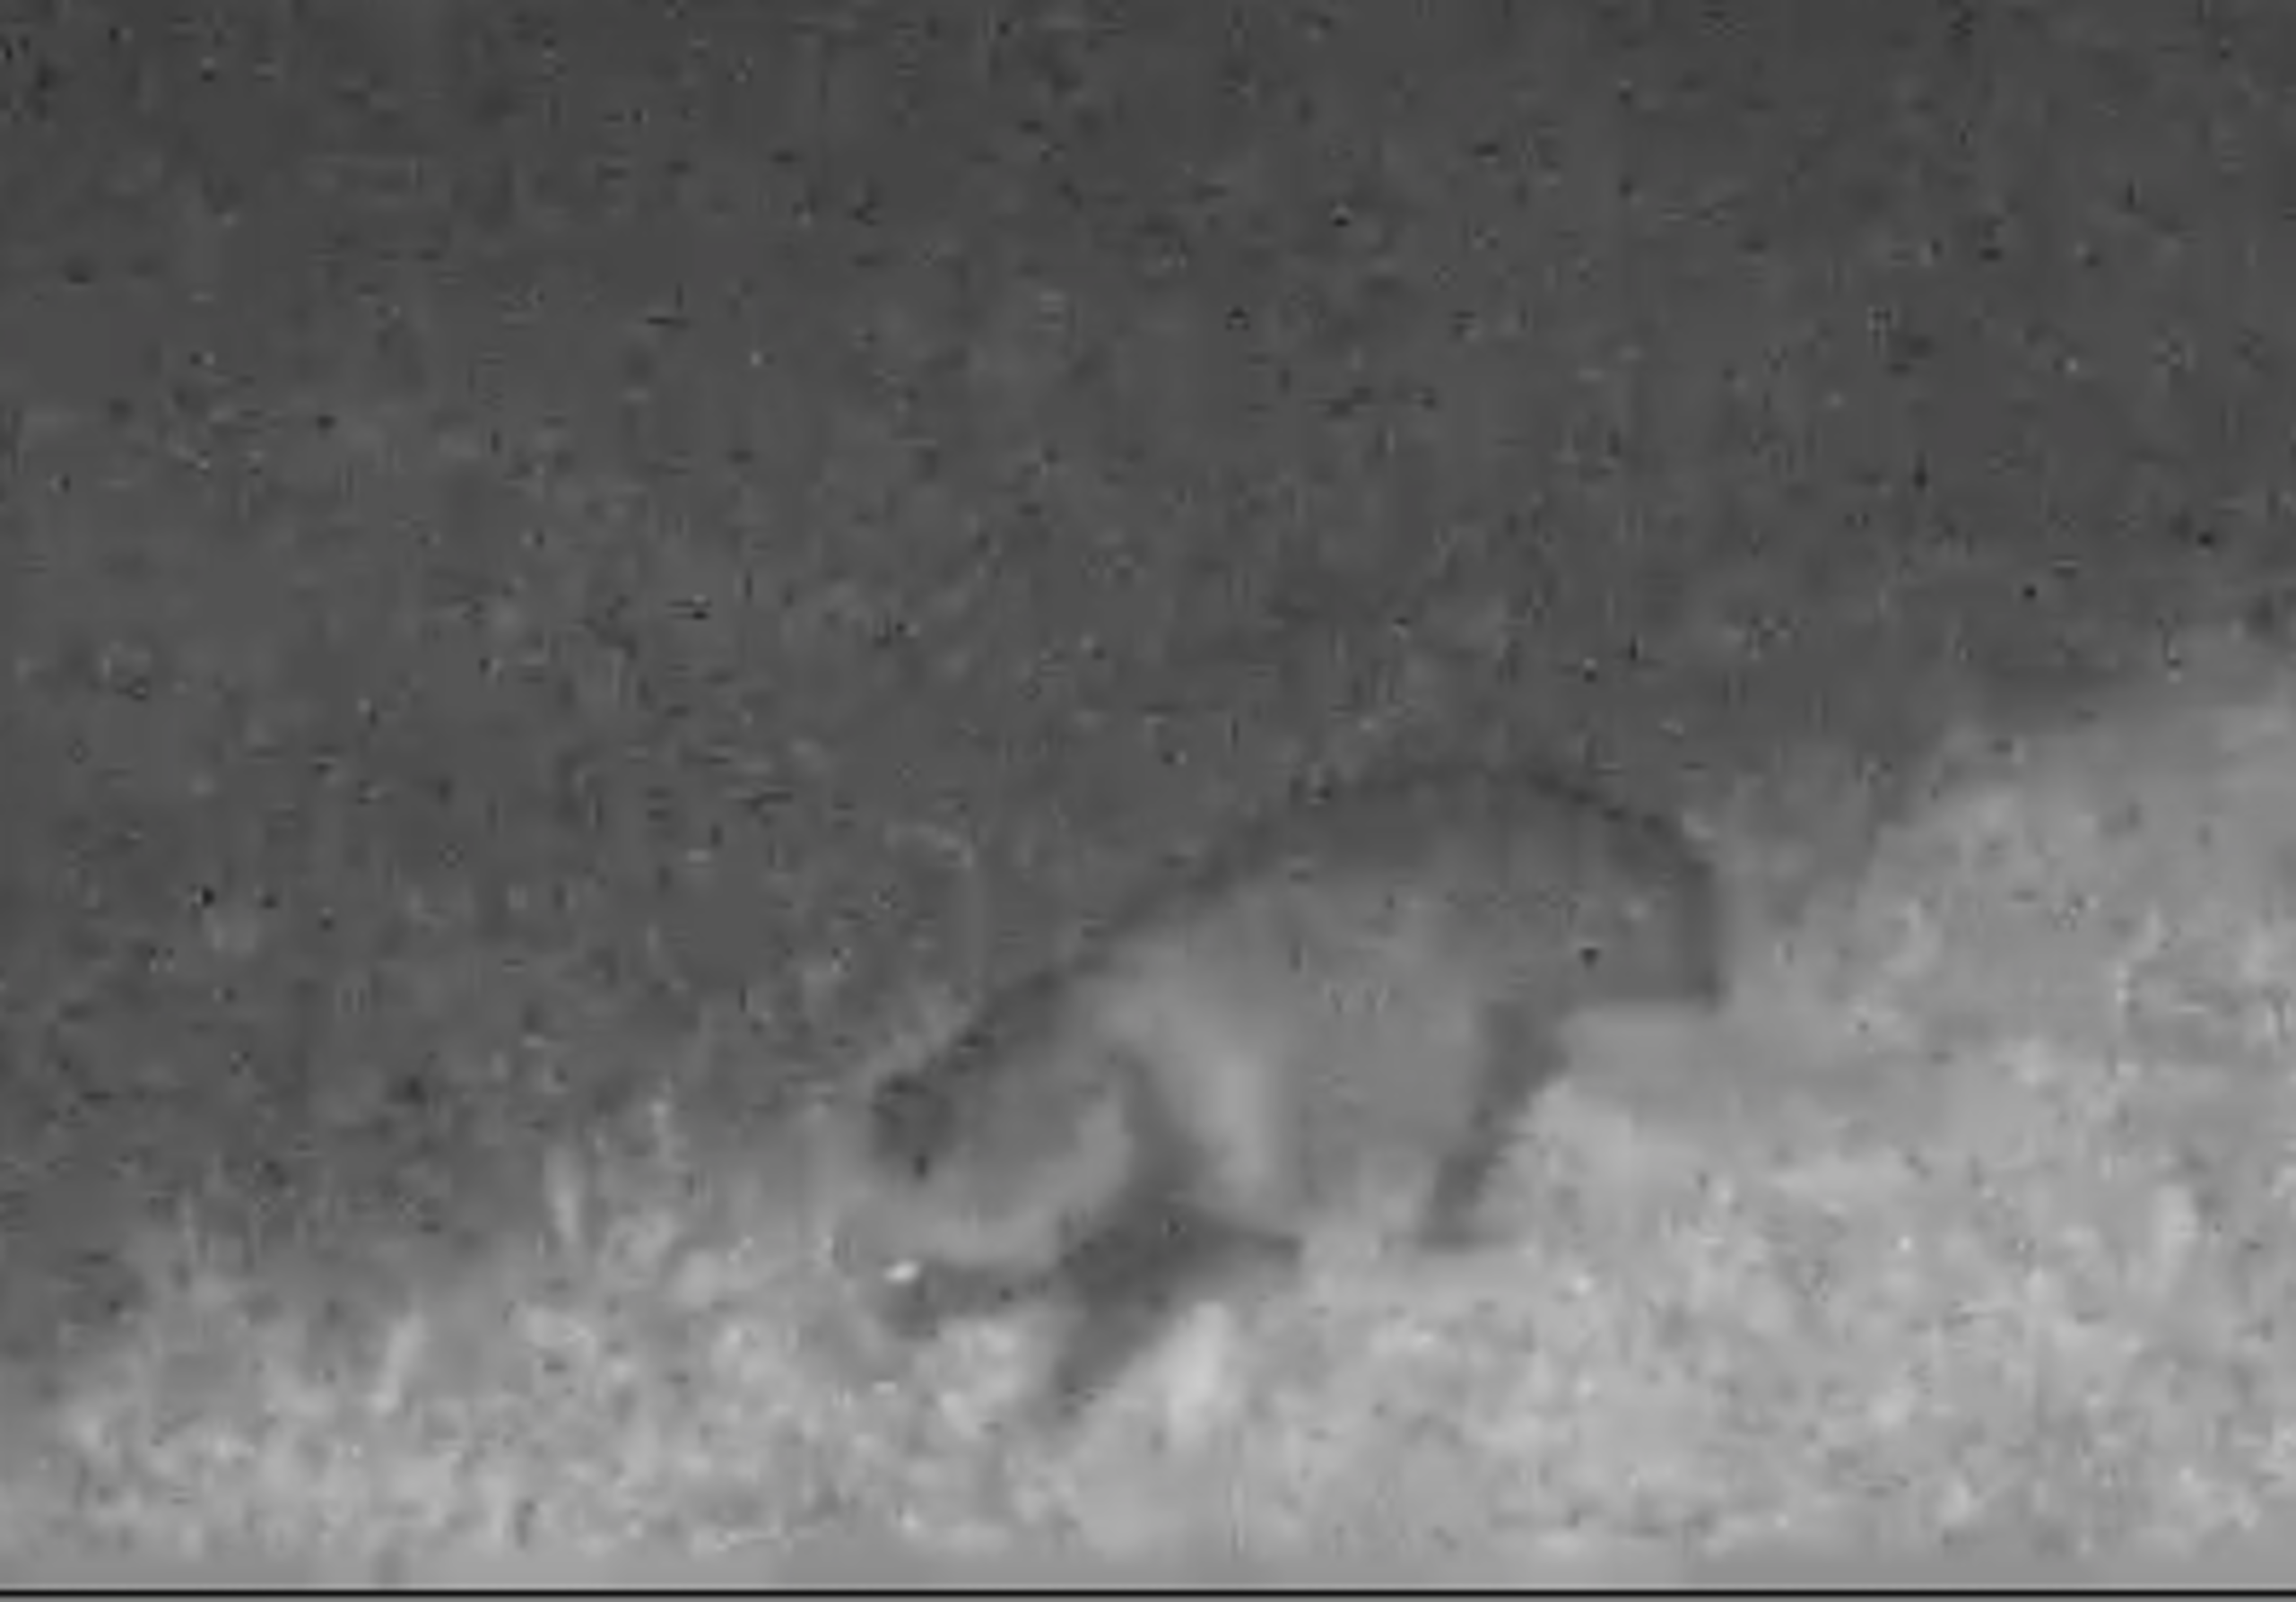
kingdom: Animalia
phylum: Chordata
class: Mammalia
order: Carnivora
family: Canidae
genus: Nyctereutes
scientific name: Nyctereutes procyonoides
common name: Mårhund
